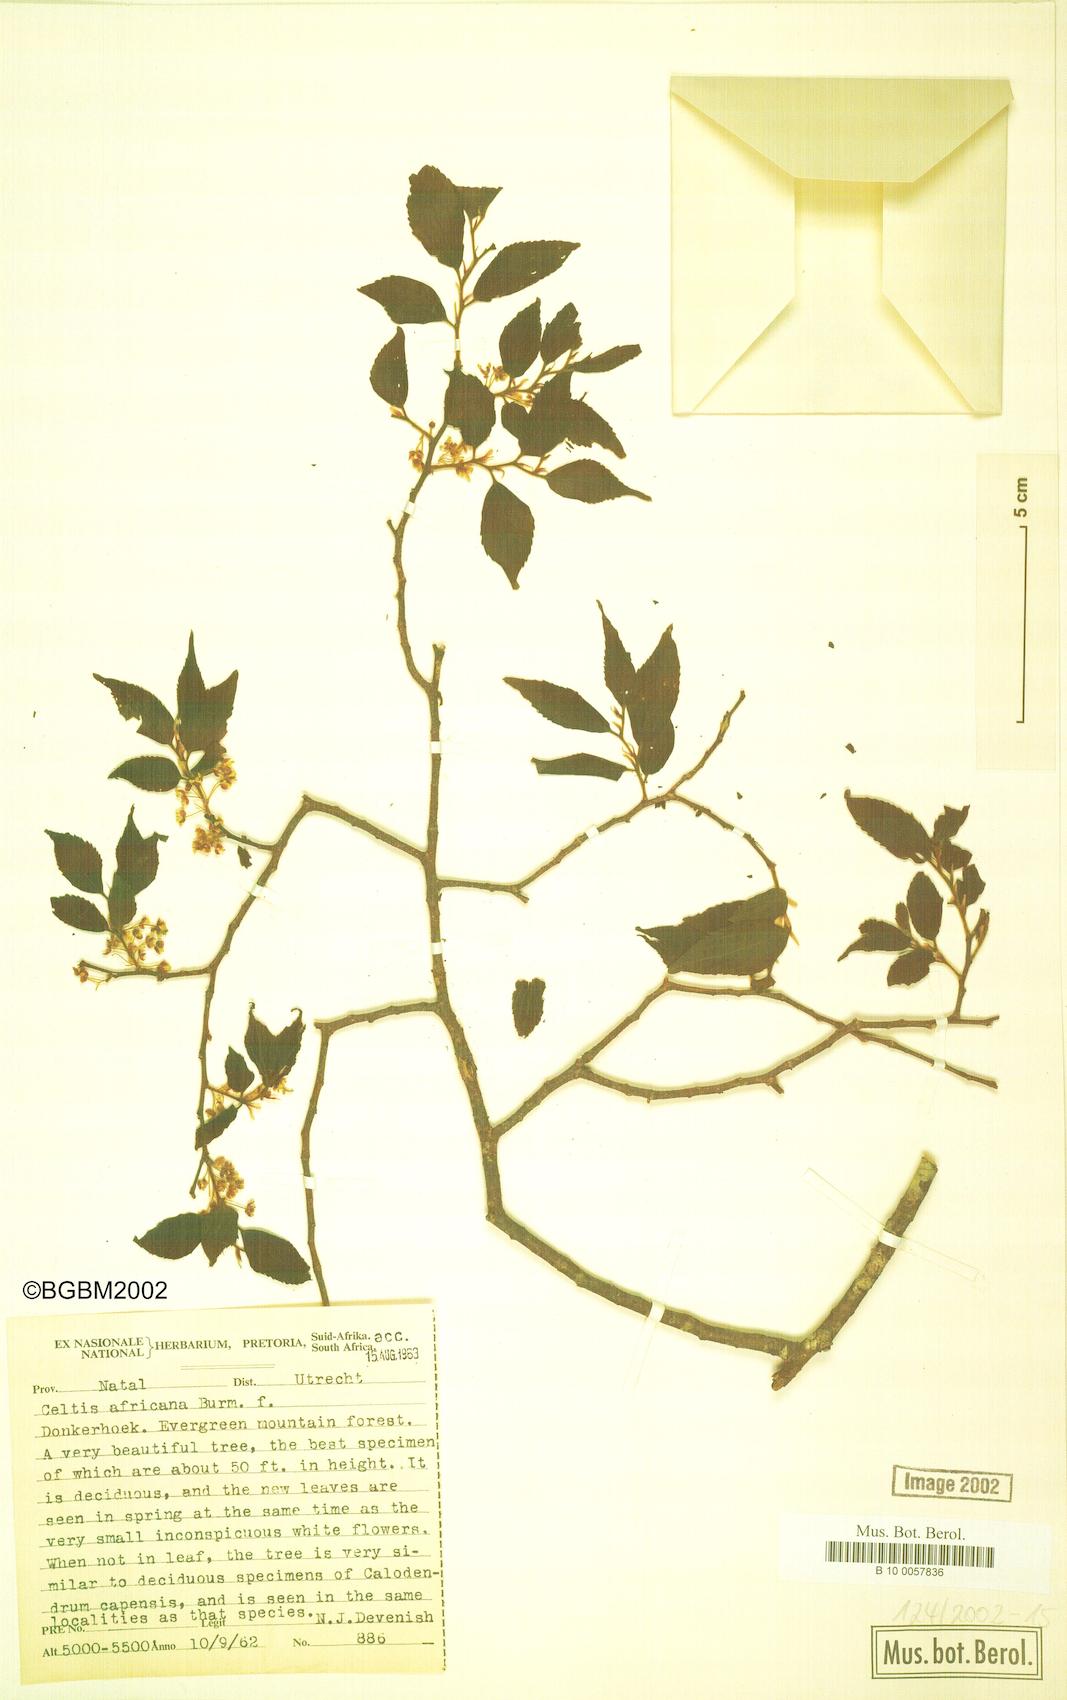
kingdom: Plantae
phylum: Tracheophyta
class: Magnoliopsida
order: Rosales
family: Cannabaceae
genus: Celtis
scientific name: Celtis africana
